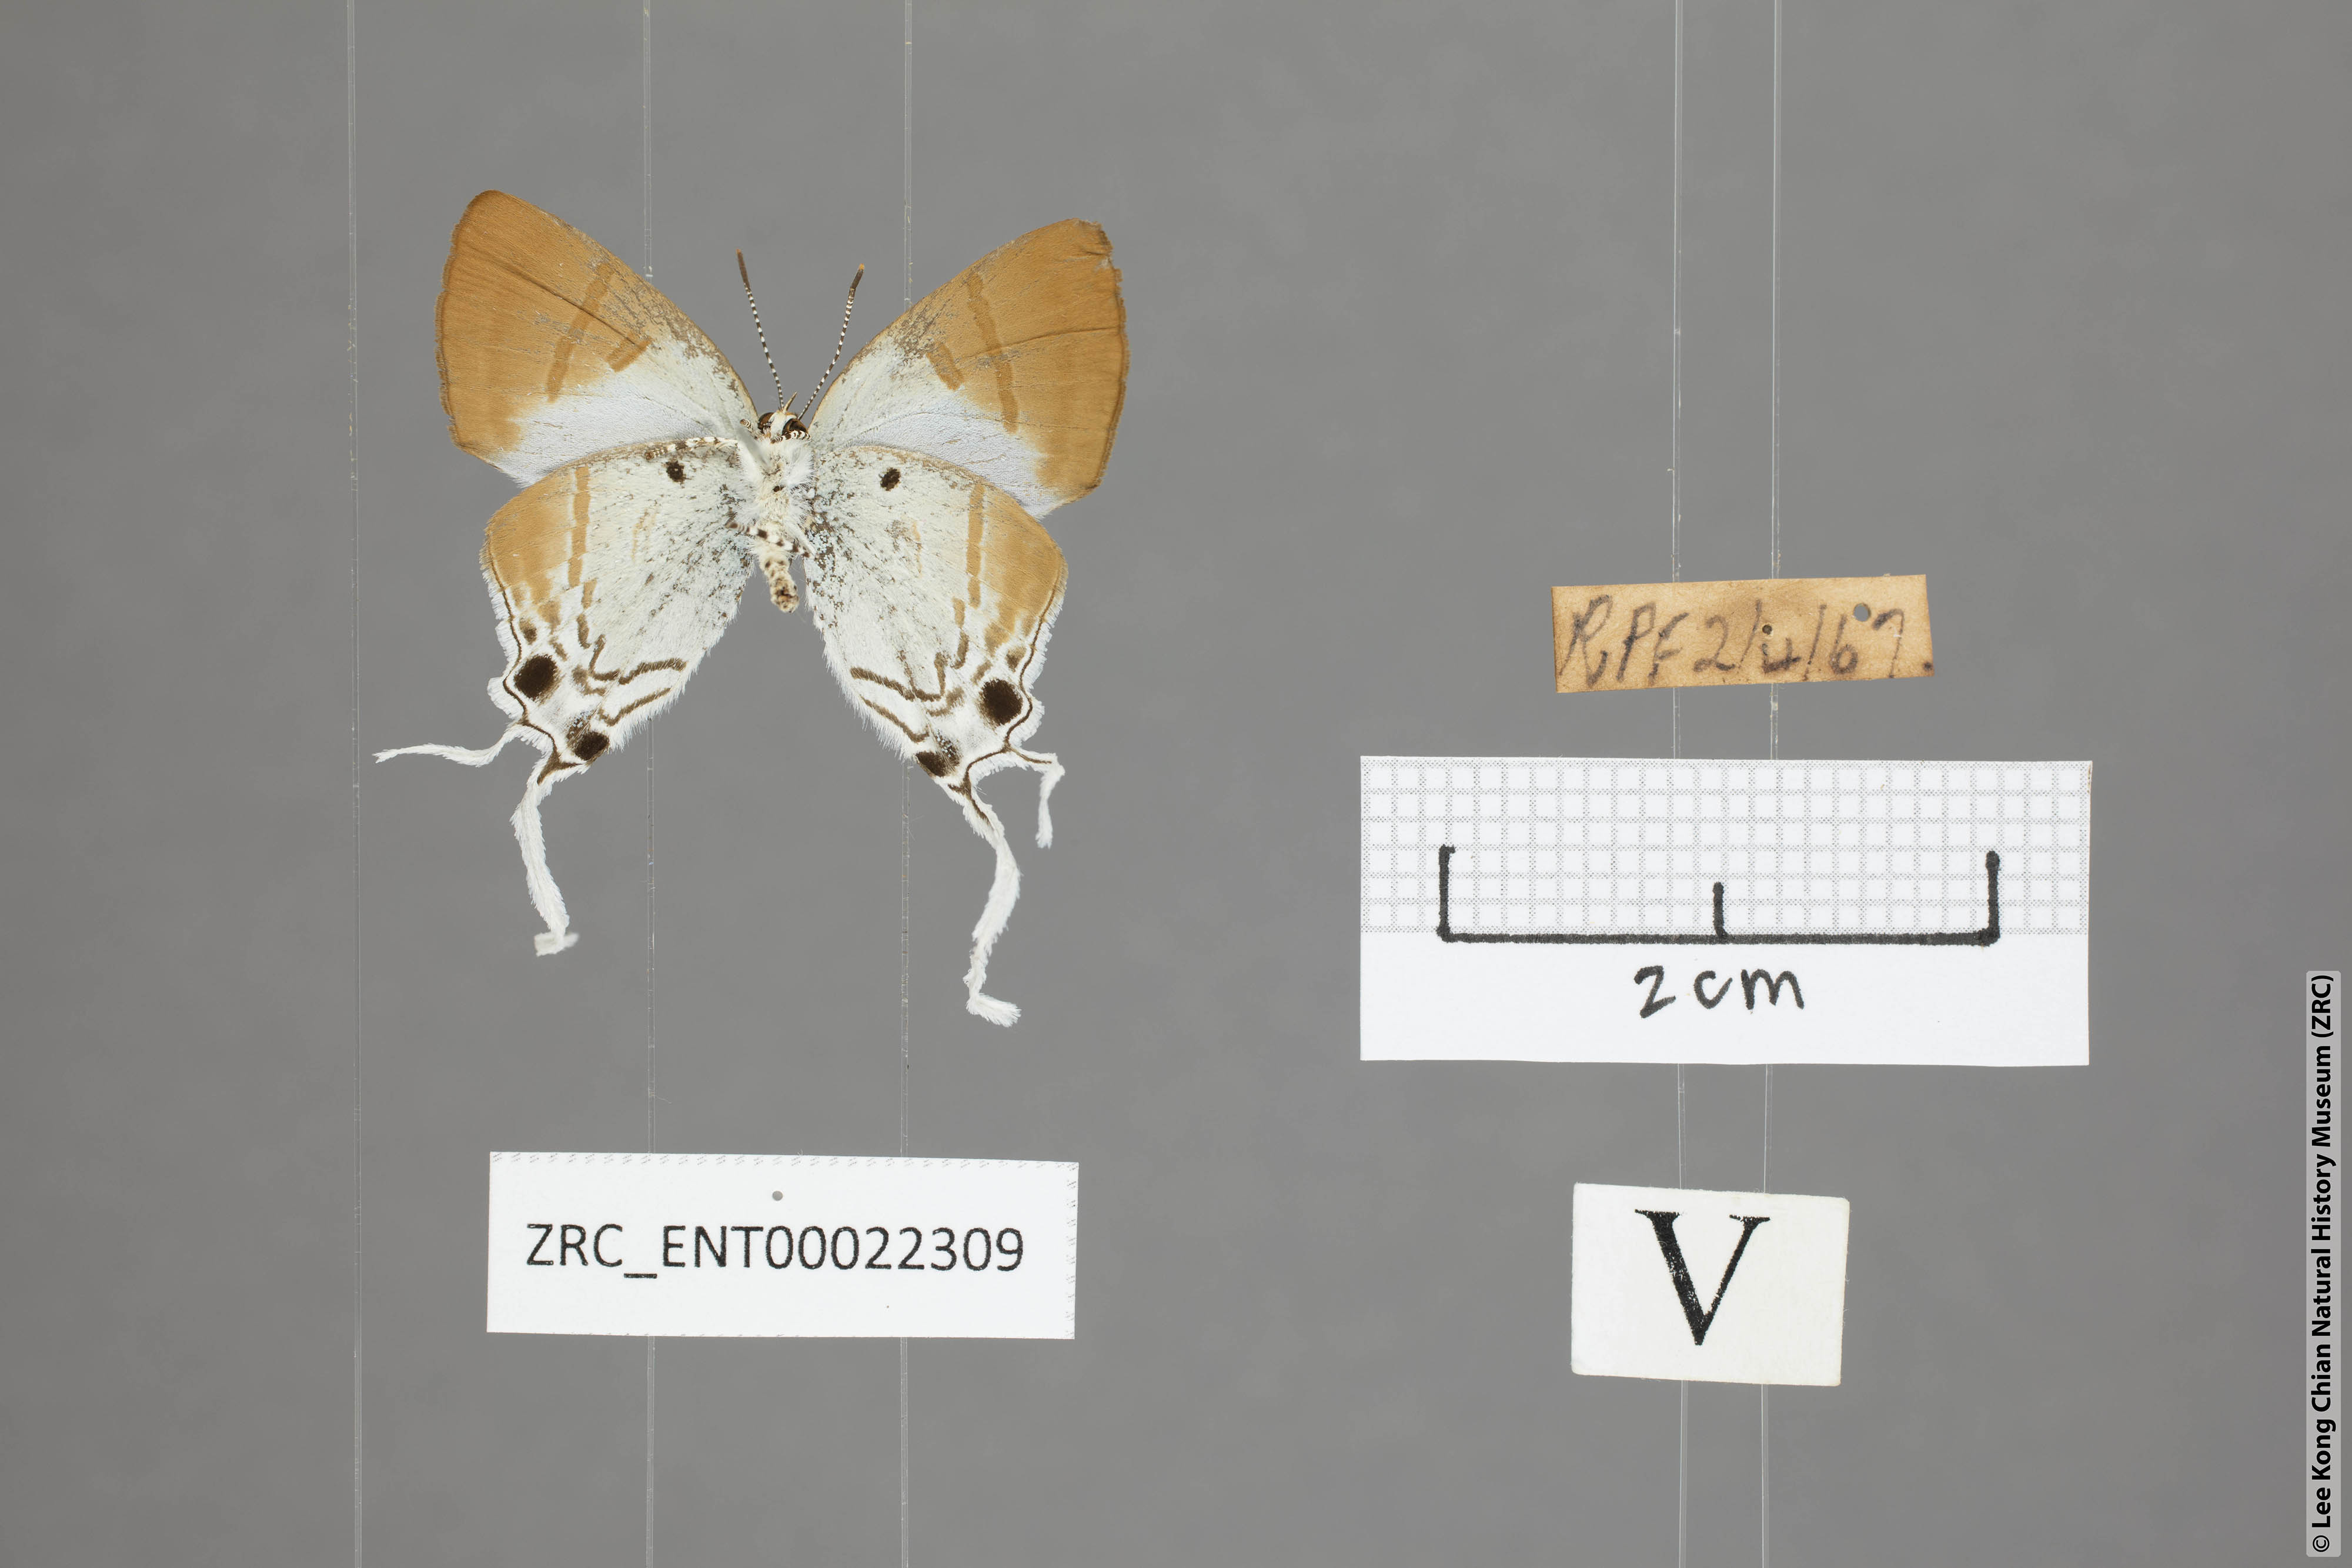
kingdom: Animalia
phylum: Arthropoda
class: Insecta
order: Lepidoptera
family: Lycaenidae
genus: Zeltus
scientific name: Zeltus amasa
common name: Fluffy tit
